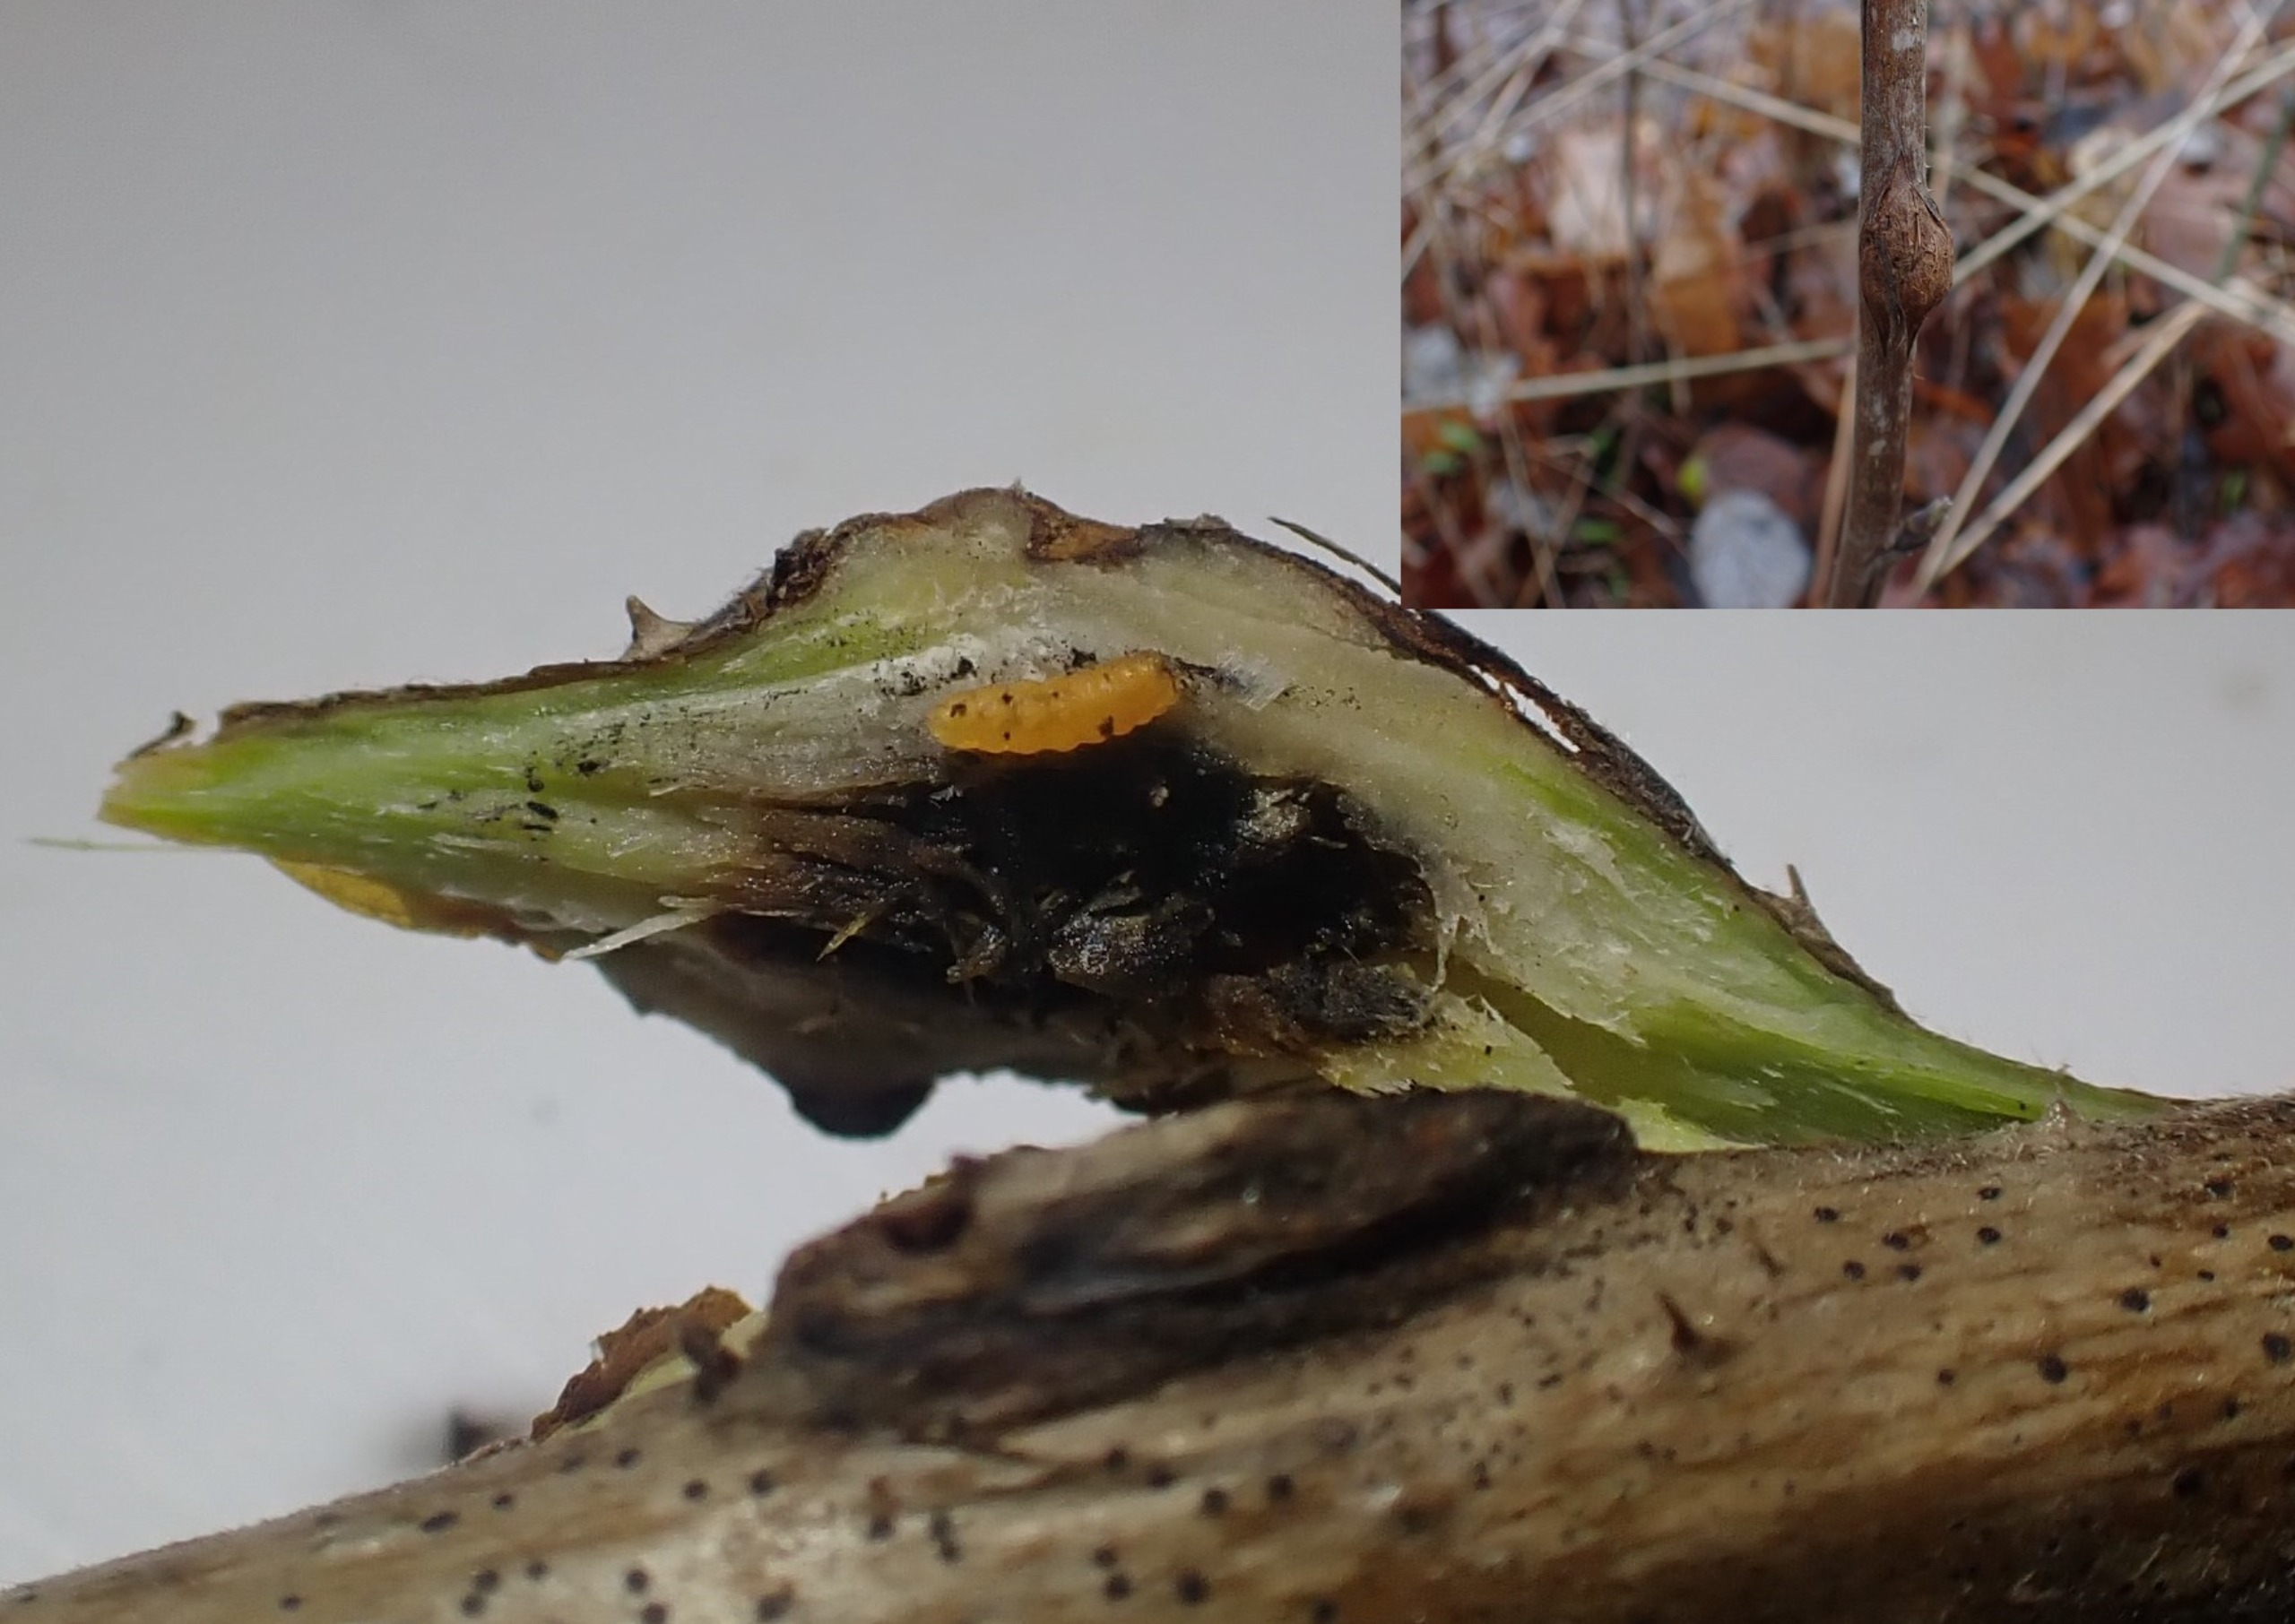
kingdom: Animalia
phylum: Arthropoda
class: Insecta
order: Diptera
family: Cecidomyiidae
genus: Lasioptera
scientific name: Lasioptera rubi
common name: Hindbærstængelgalmyg
